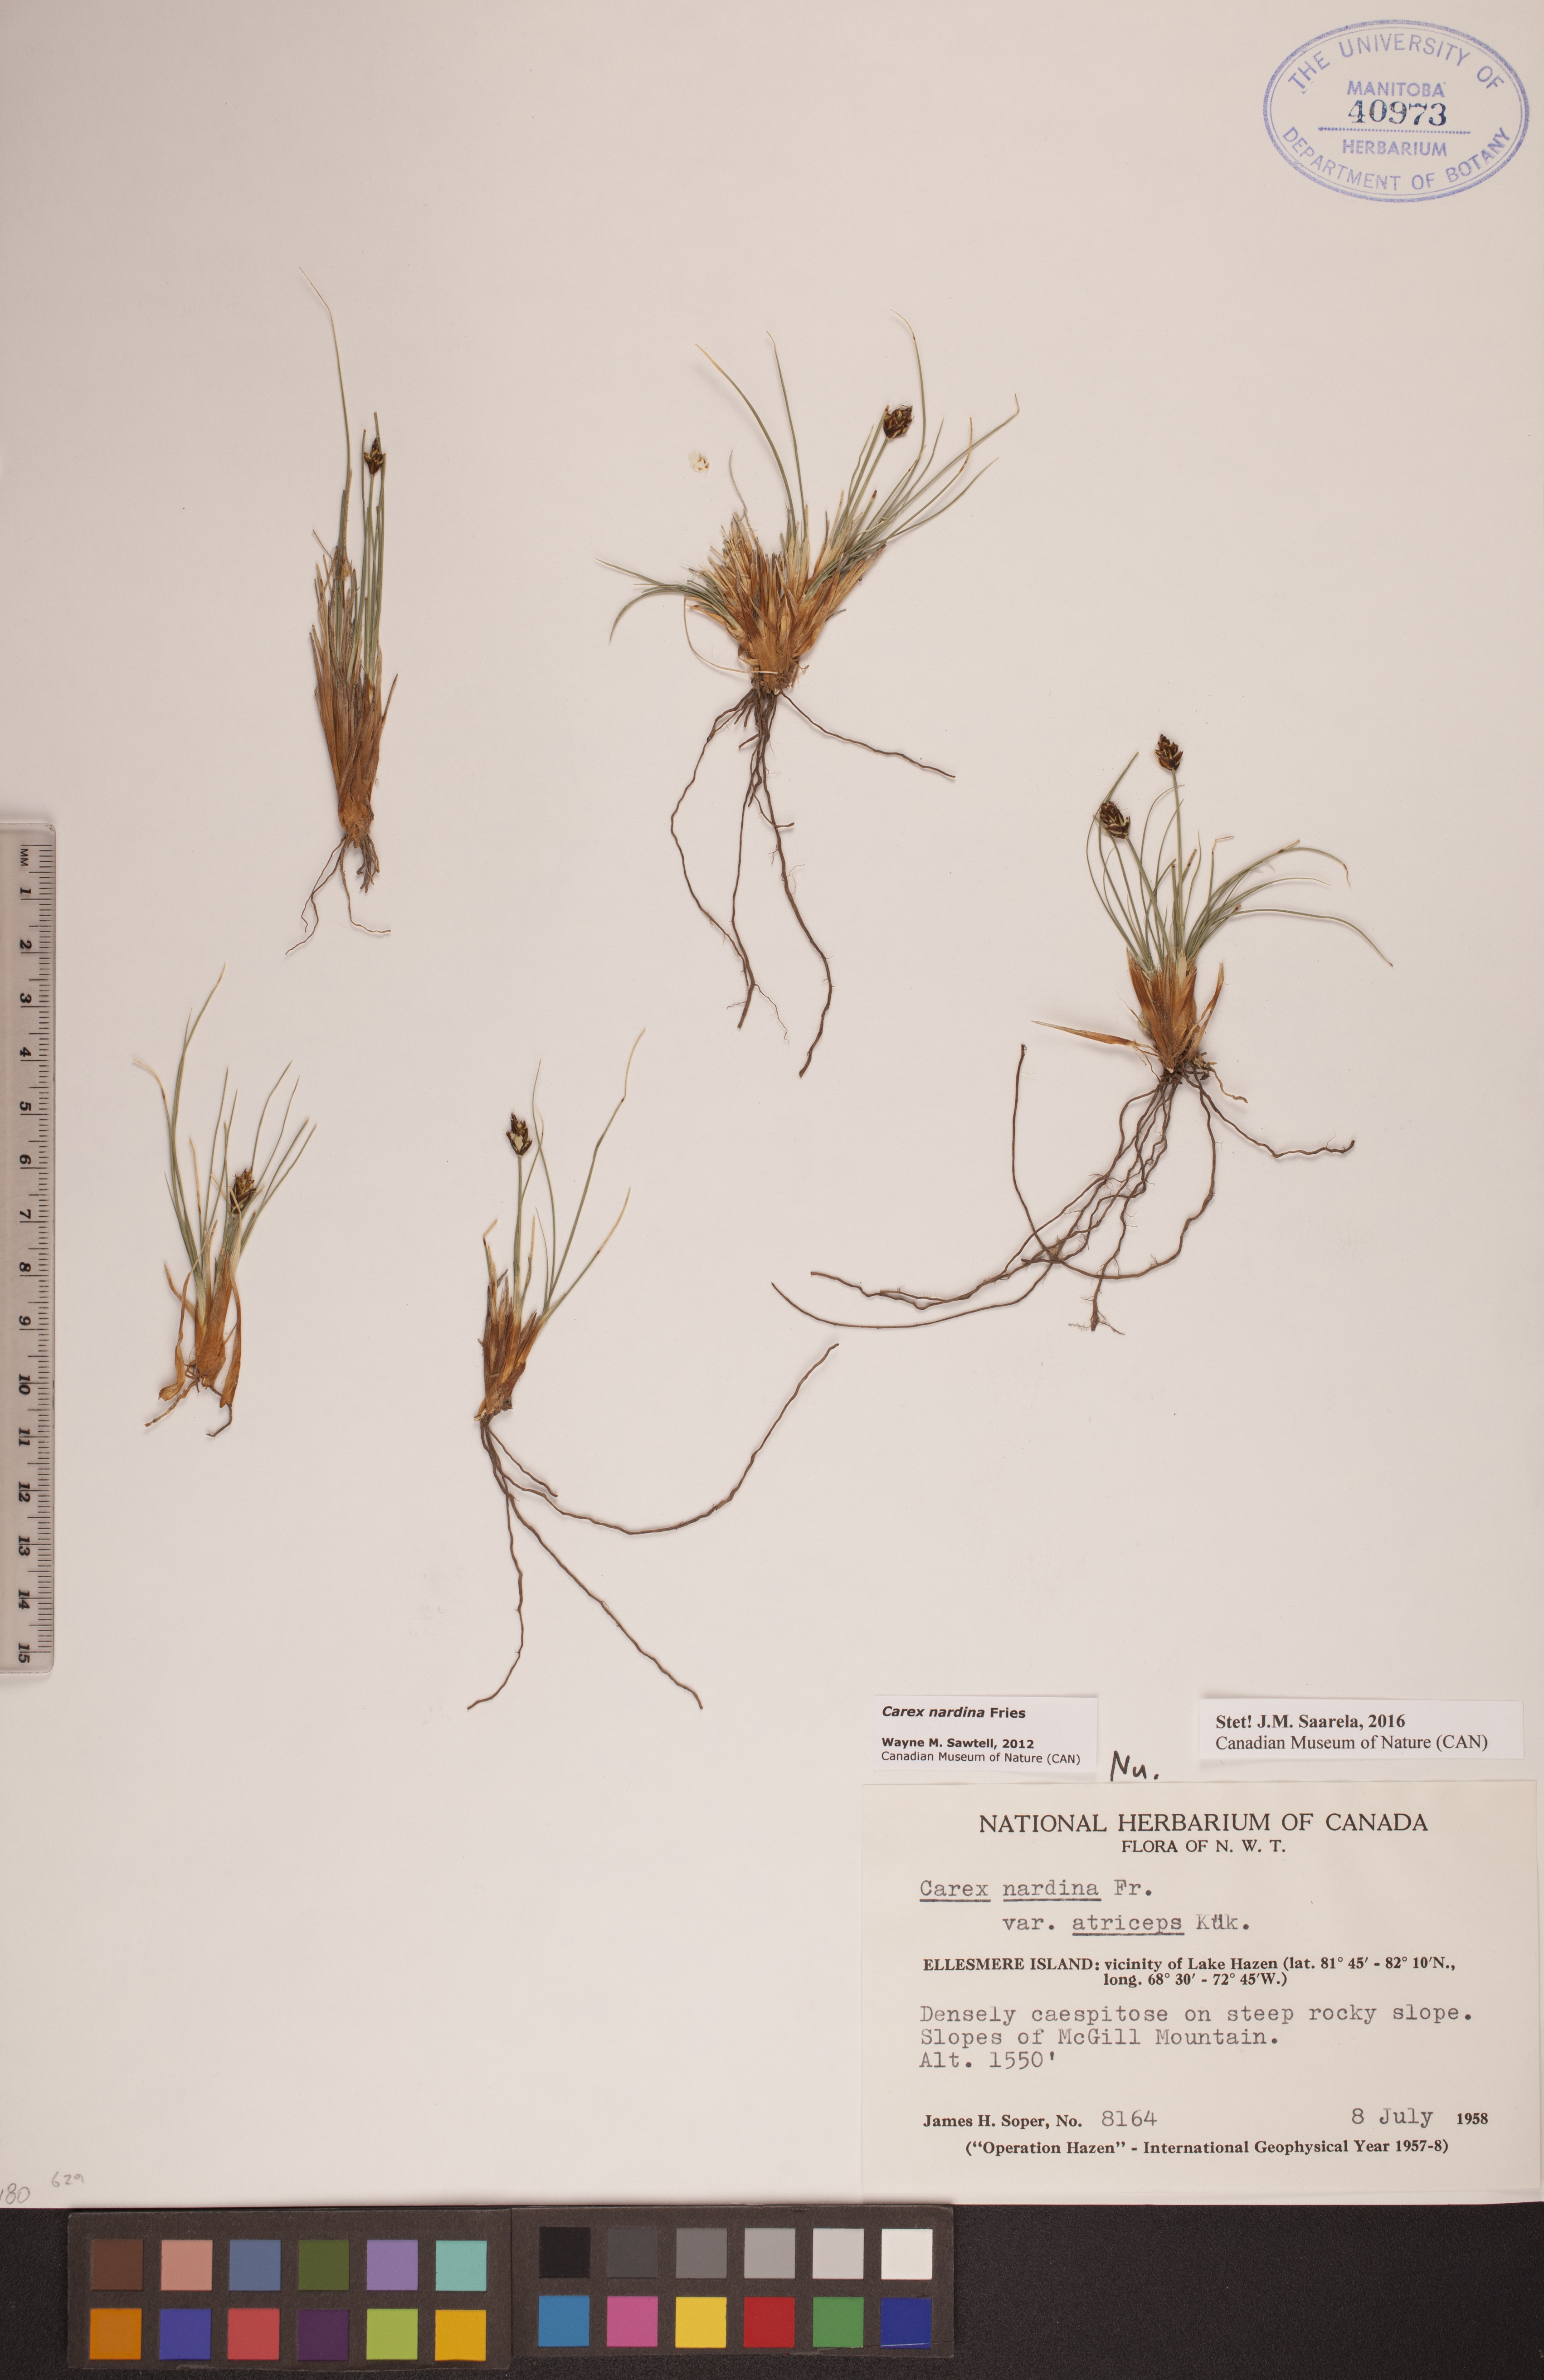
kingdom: Plantae
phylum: Tracheophyta
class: Liliopsida
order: Poales
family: Cyperaceae
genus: Carex
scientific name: Carex nardina
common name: Nard sedge
